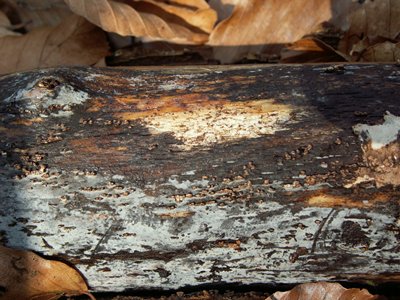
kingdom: Fungi
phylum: Basidiomycota
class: Tremellomycetes
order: Tremellales
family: Exidiaceae
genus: Exidiopsis
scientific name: Exidiopsis effusa
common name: smuk bævrehinde
